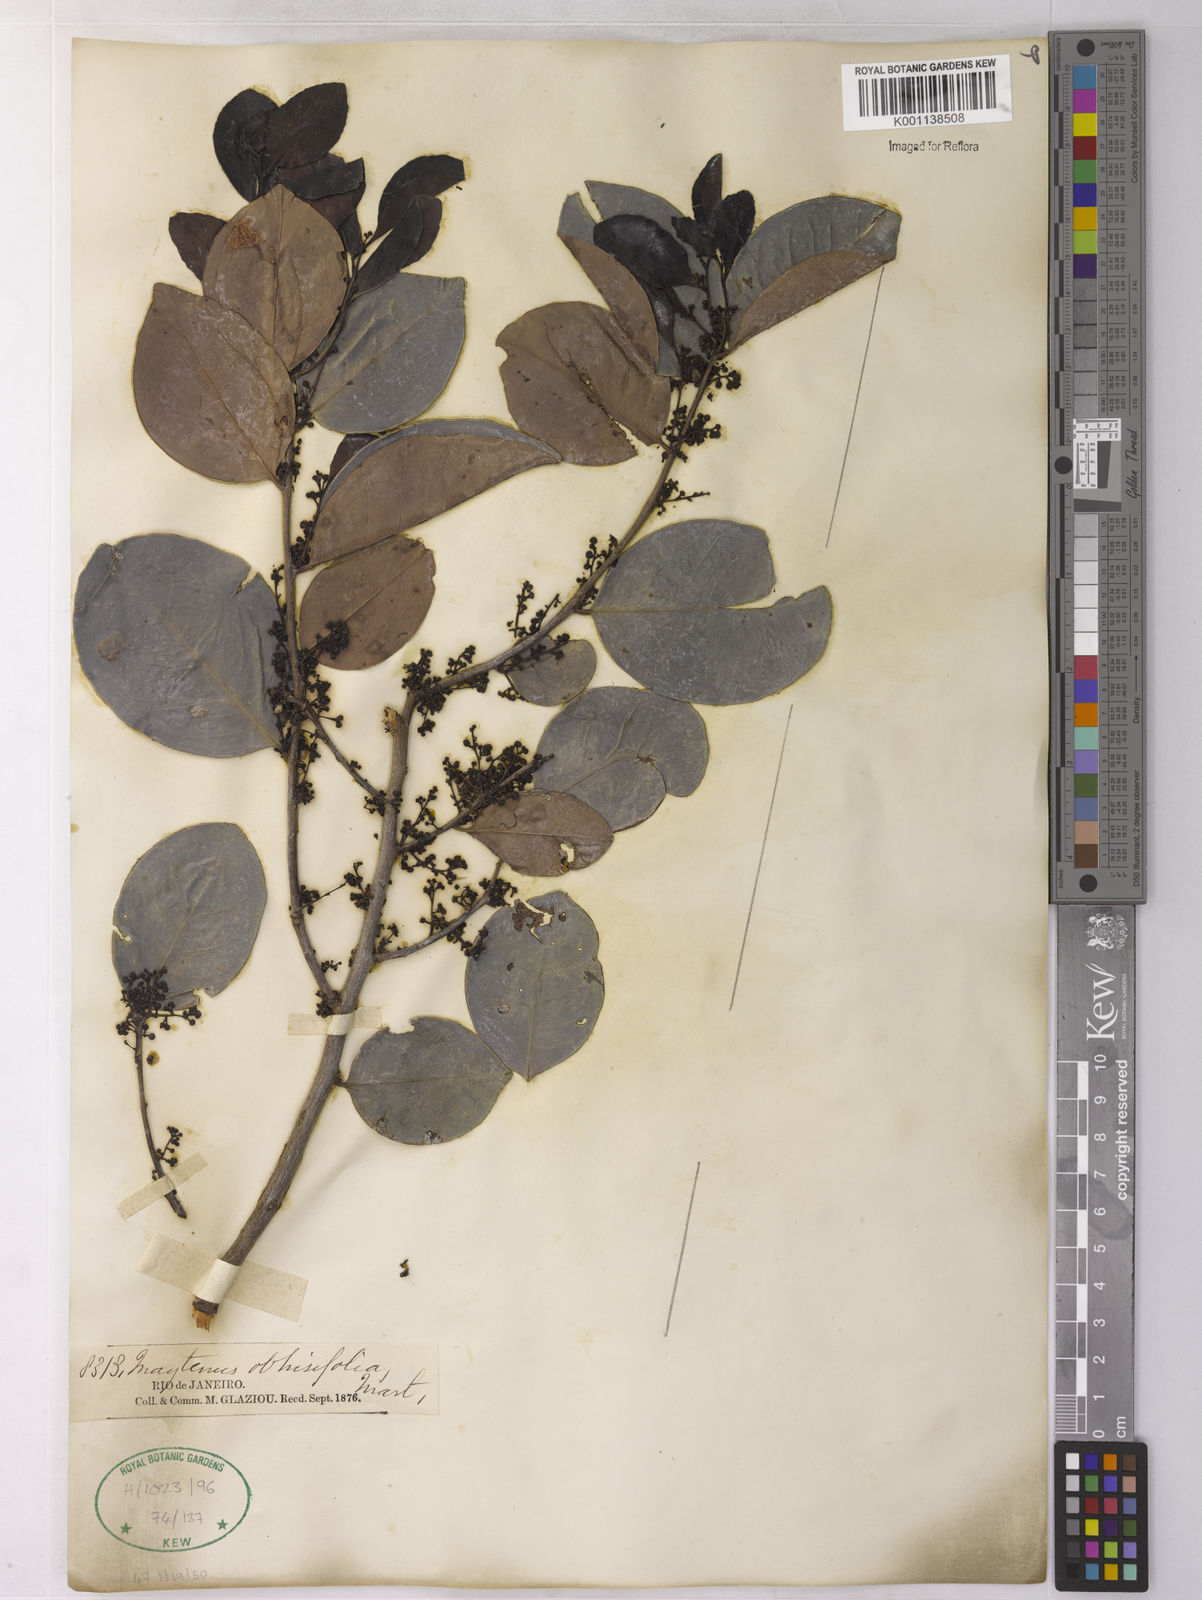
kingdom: Plantae
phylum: Tracheophyta
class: Magnoliopsida
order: Celastrales
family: Celastraceae
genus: Monteverdia
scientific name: Monteverdia obtusifolia
